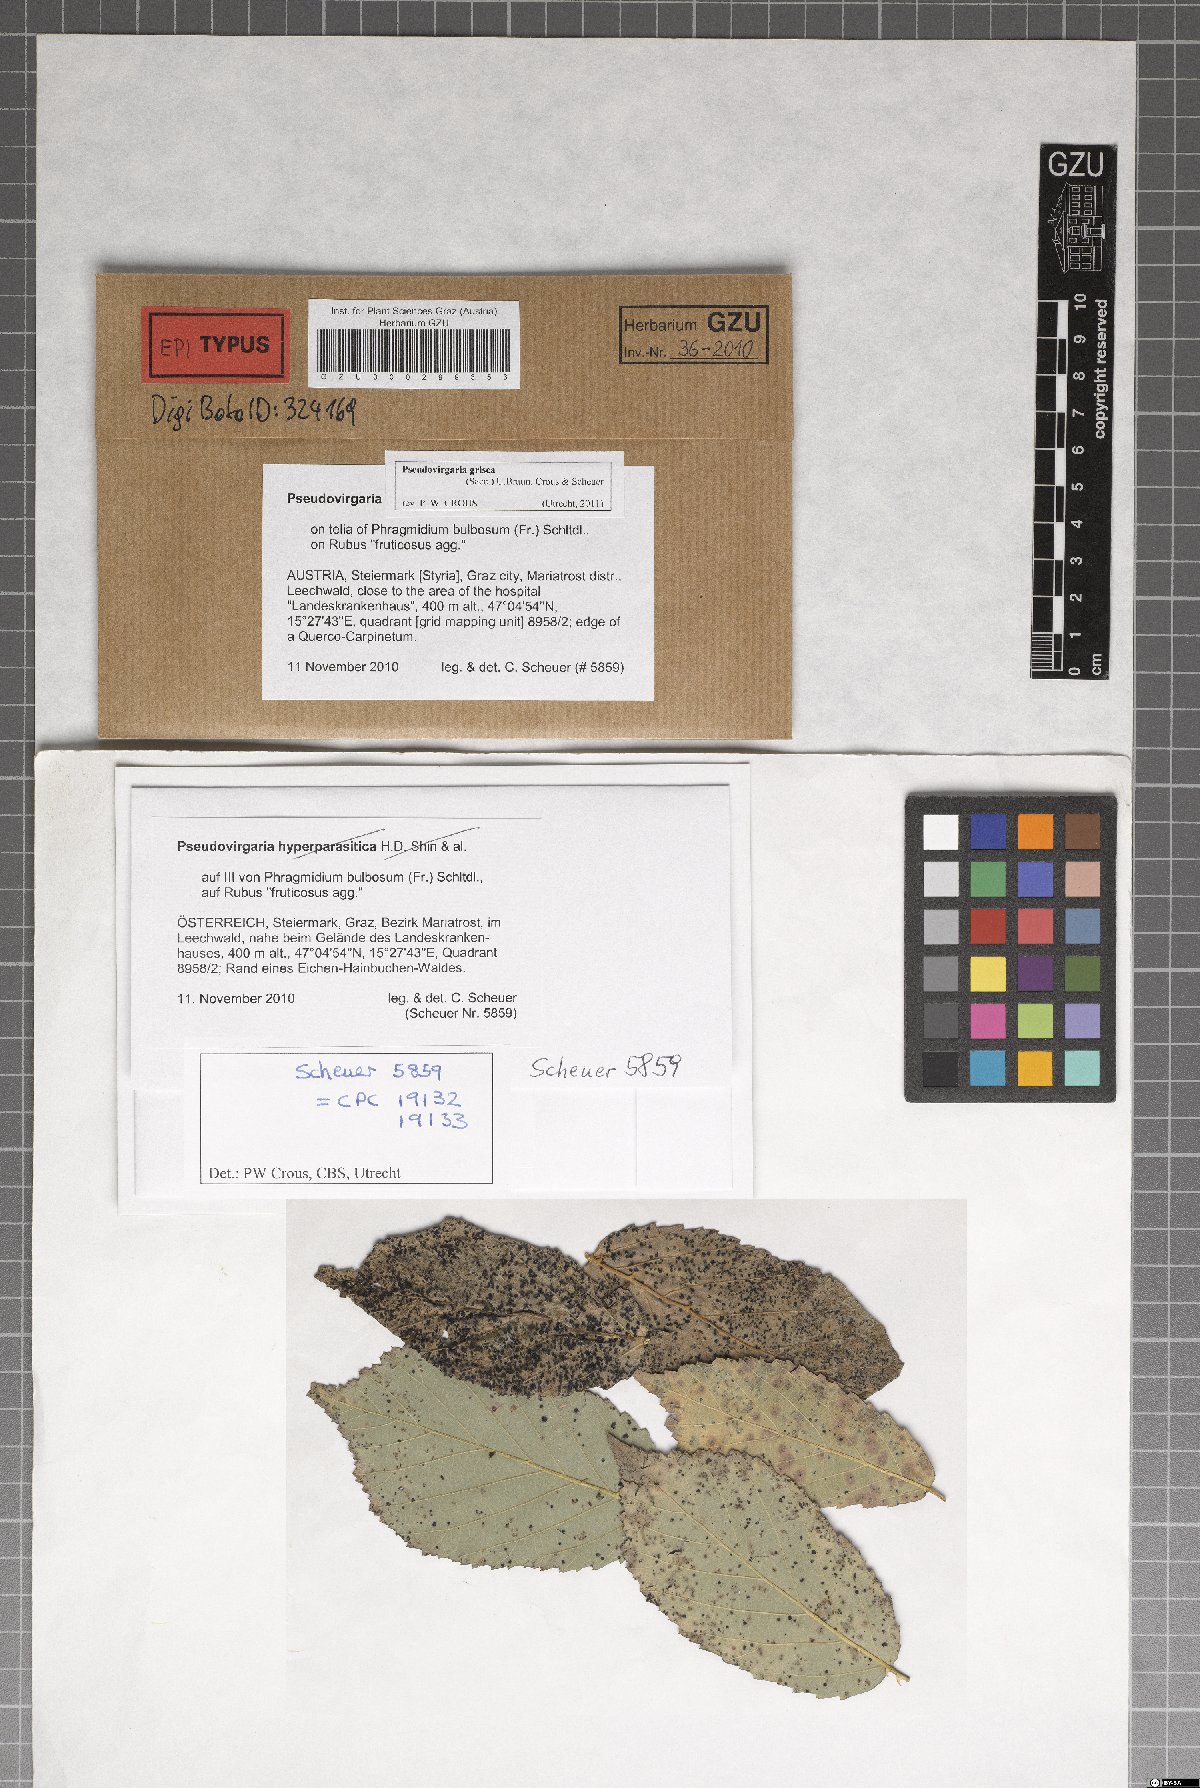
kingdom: Fungi
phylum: Ascomycota
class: Dothideomycetes
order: Capnodiales
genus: Pseudovirgaria
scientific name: Pseudovirgaria grisea
